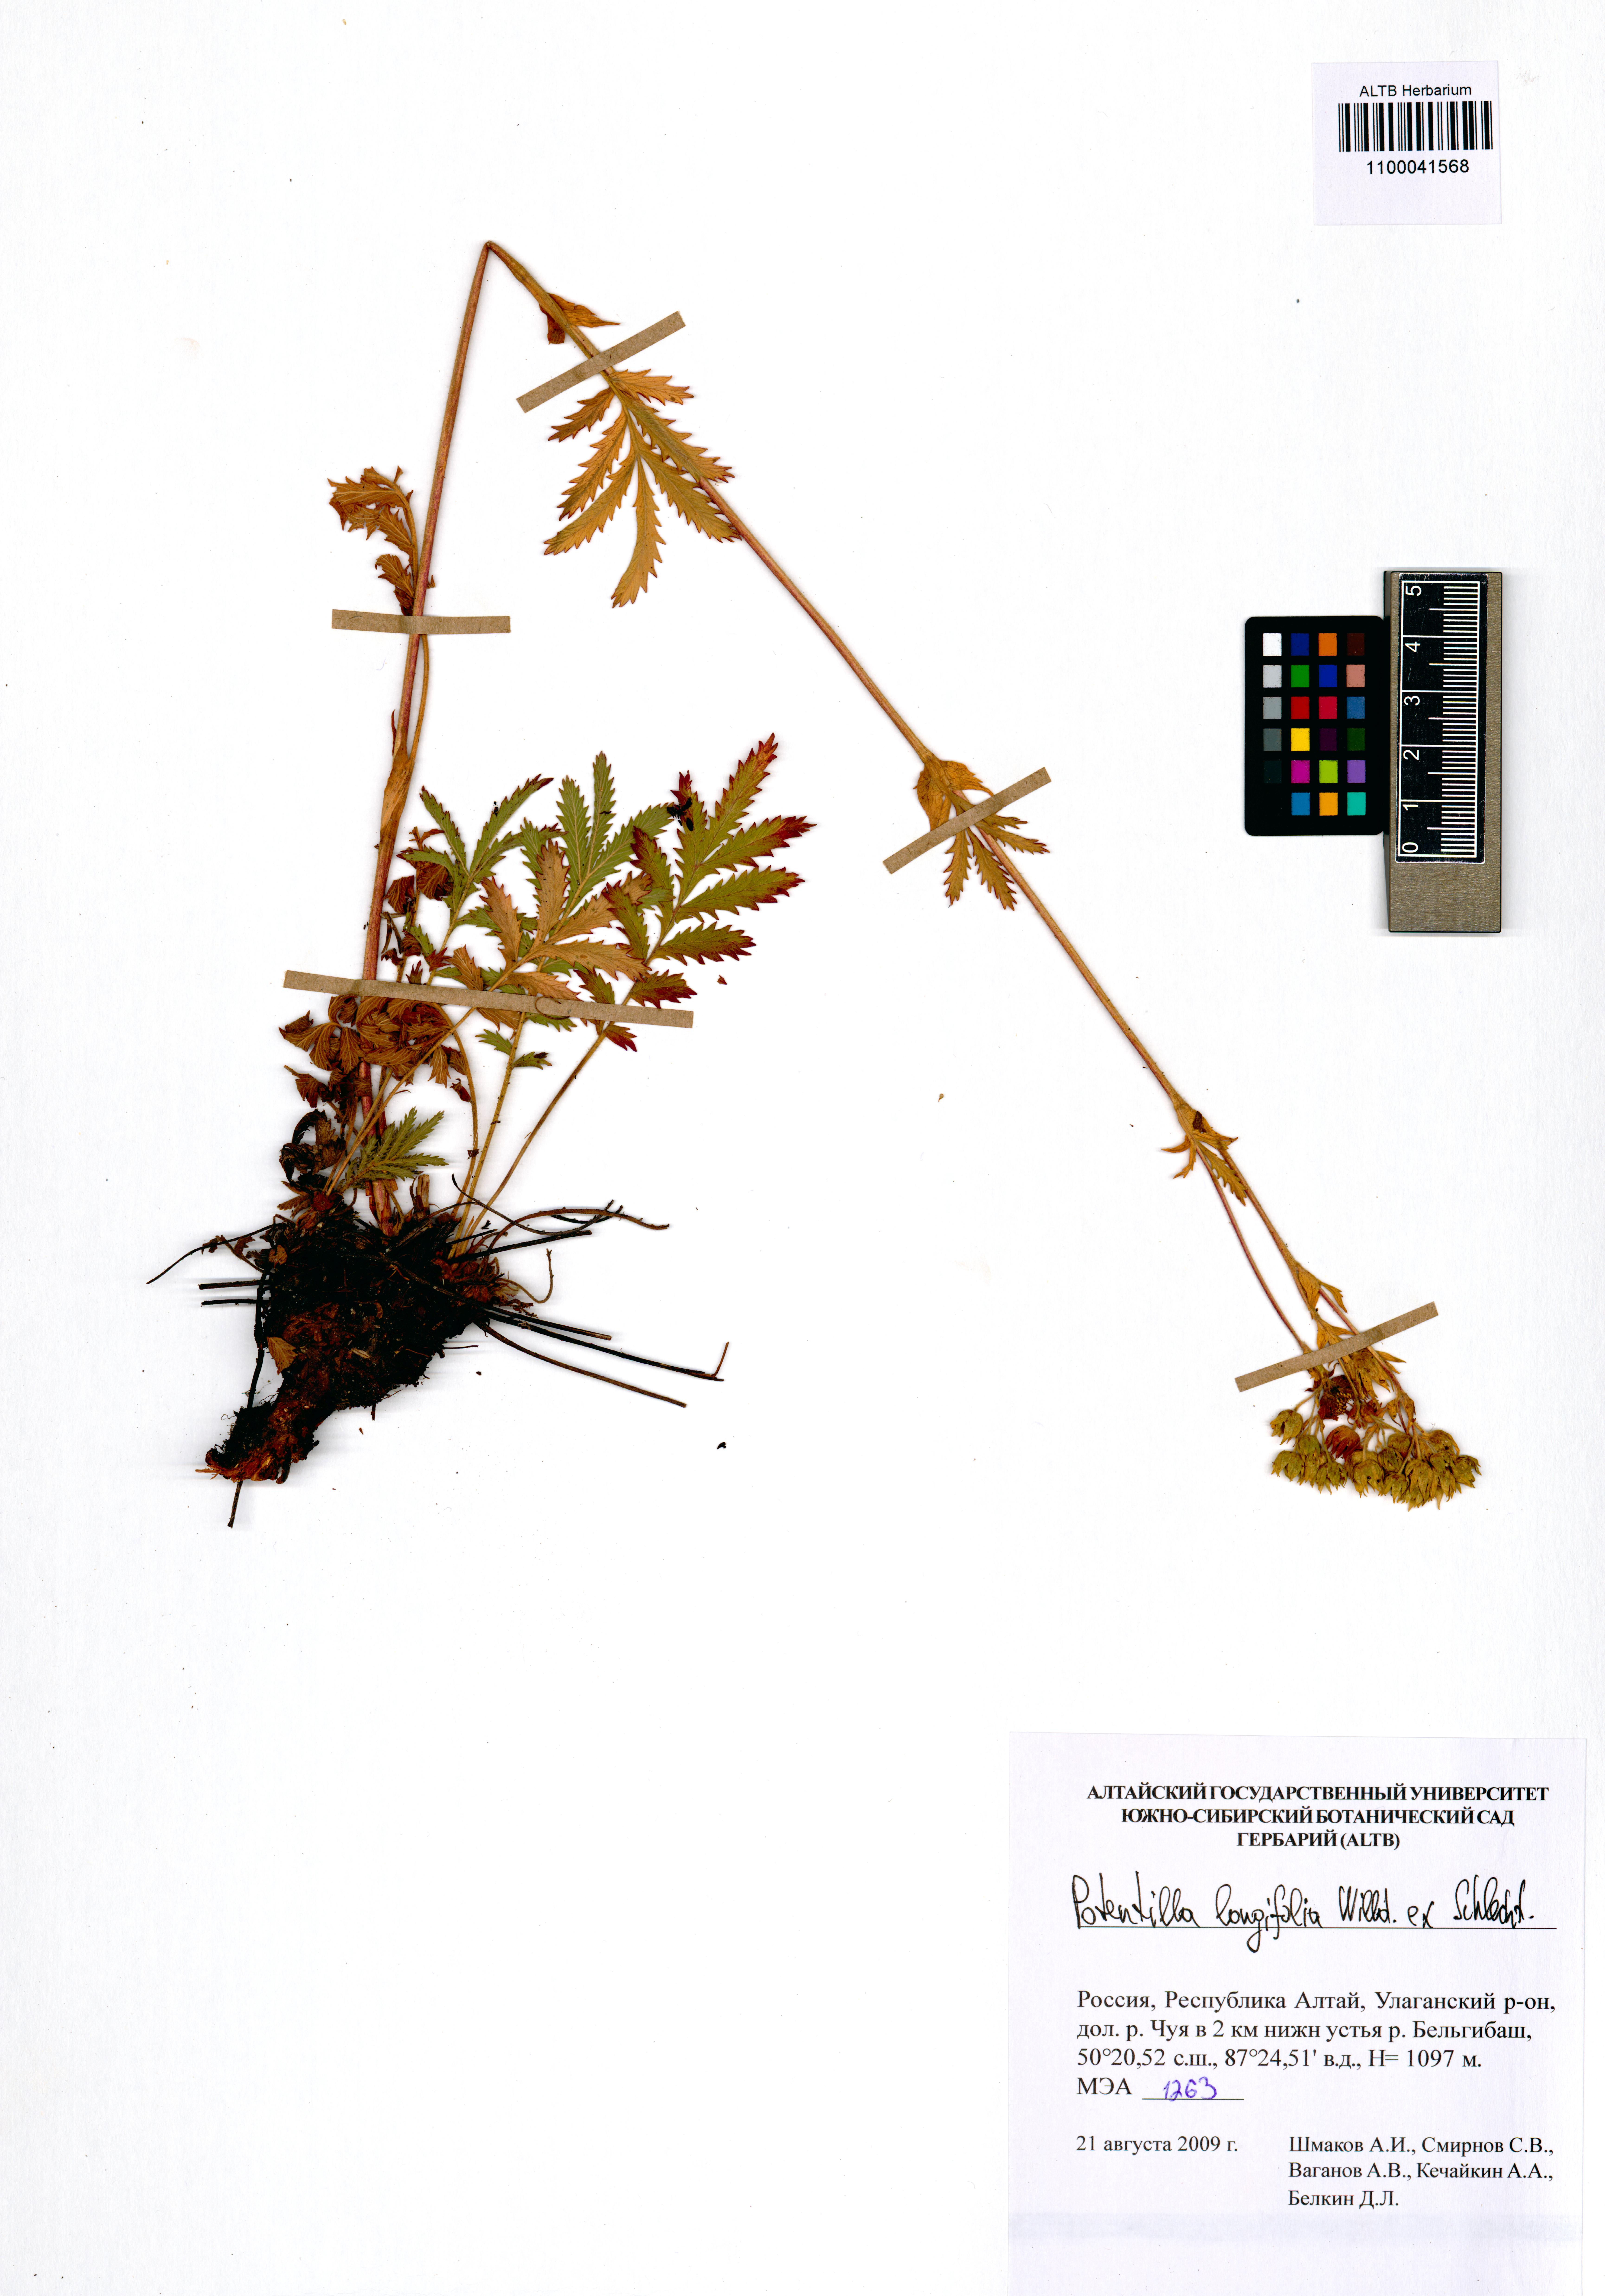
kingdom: Plantae
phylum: Tracheophyta
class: Magnoliopsida
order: Rosales
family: Rosaceae
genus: Potentilla
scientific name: Potentilla longifolia
